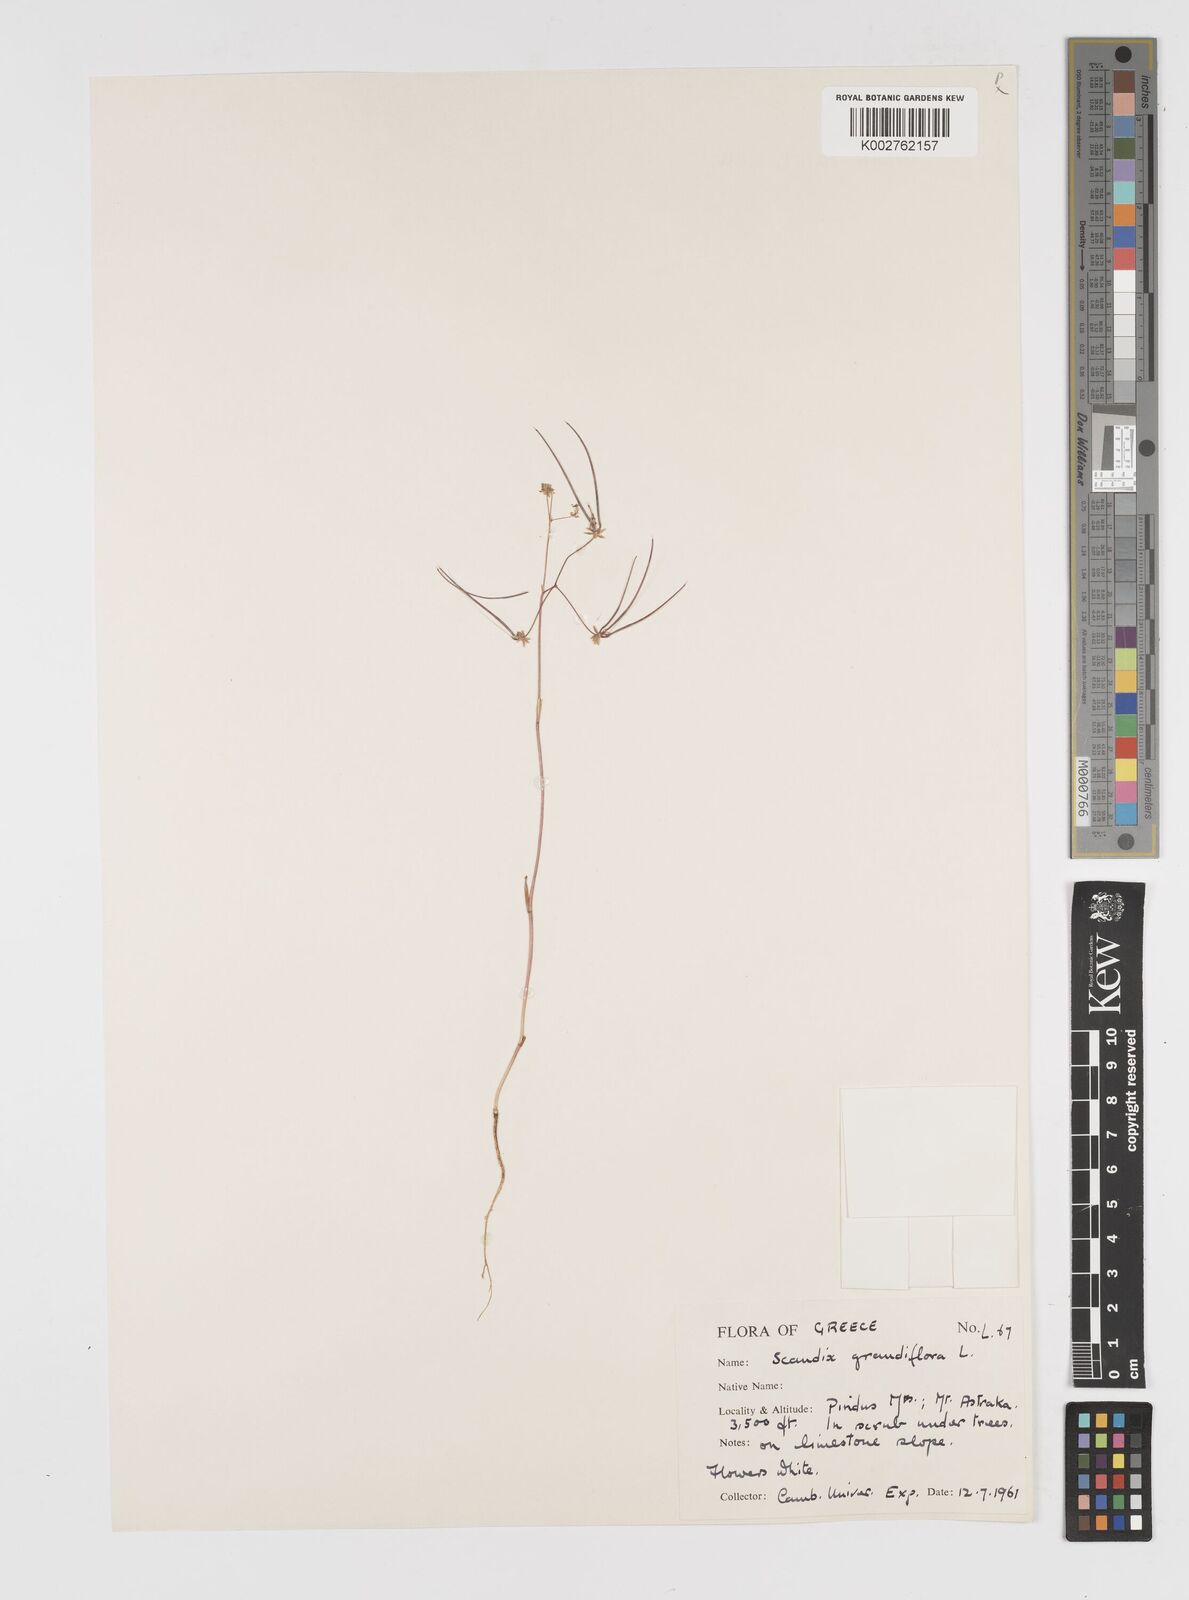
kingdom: Plantae
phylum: Tracheophyta
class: Magnoliopsida
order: Apiales
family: Apiaceae
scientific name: Apiaceae
